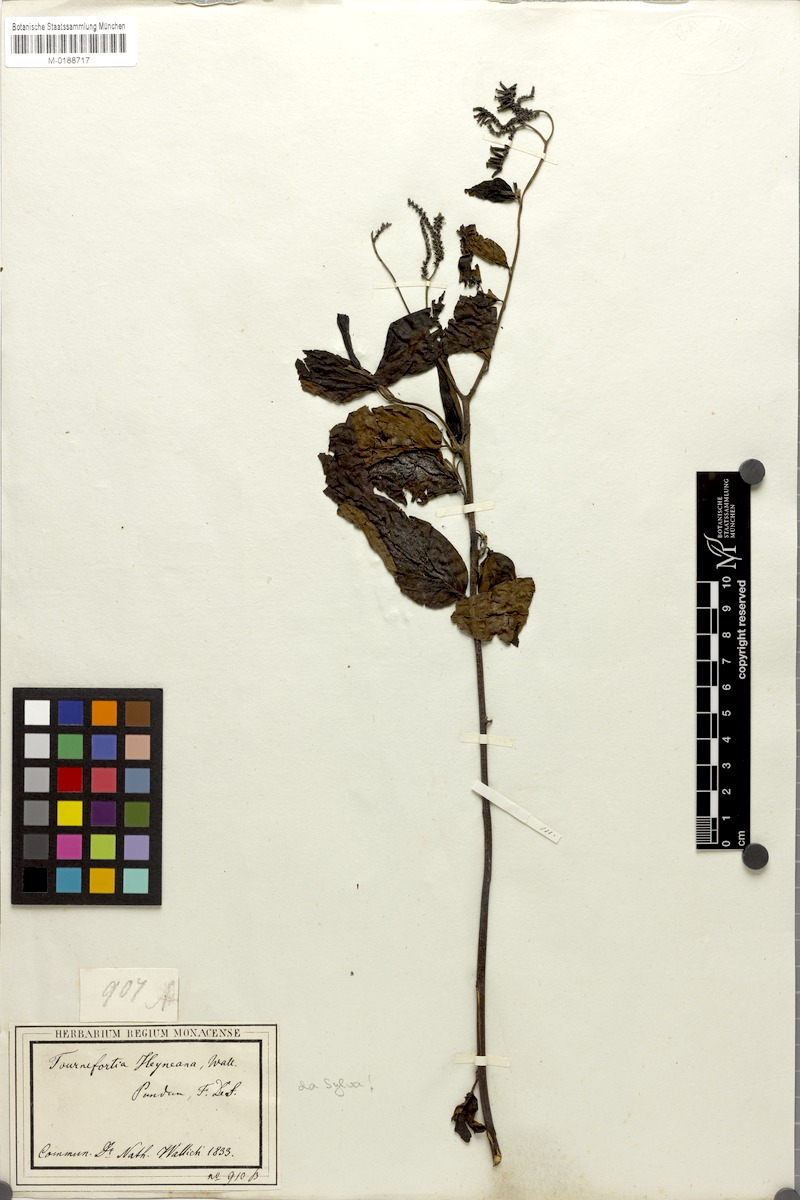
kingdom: Plantae
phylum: Tracheophyta
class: Magnoliopsida
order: Boraginales
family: Heliotropiaceae
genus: Tournefortia
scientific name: Tournefortia montana
